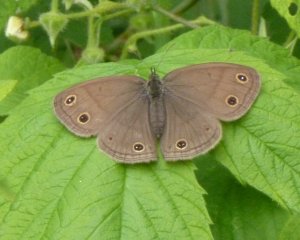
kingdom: Animalia
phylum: Arthropoda
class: Insecta
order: Lepidoptera
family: Nymphalidae
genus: Euptychia
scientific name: Euptychia cymela
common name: Little Wood Satyr
